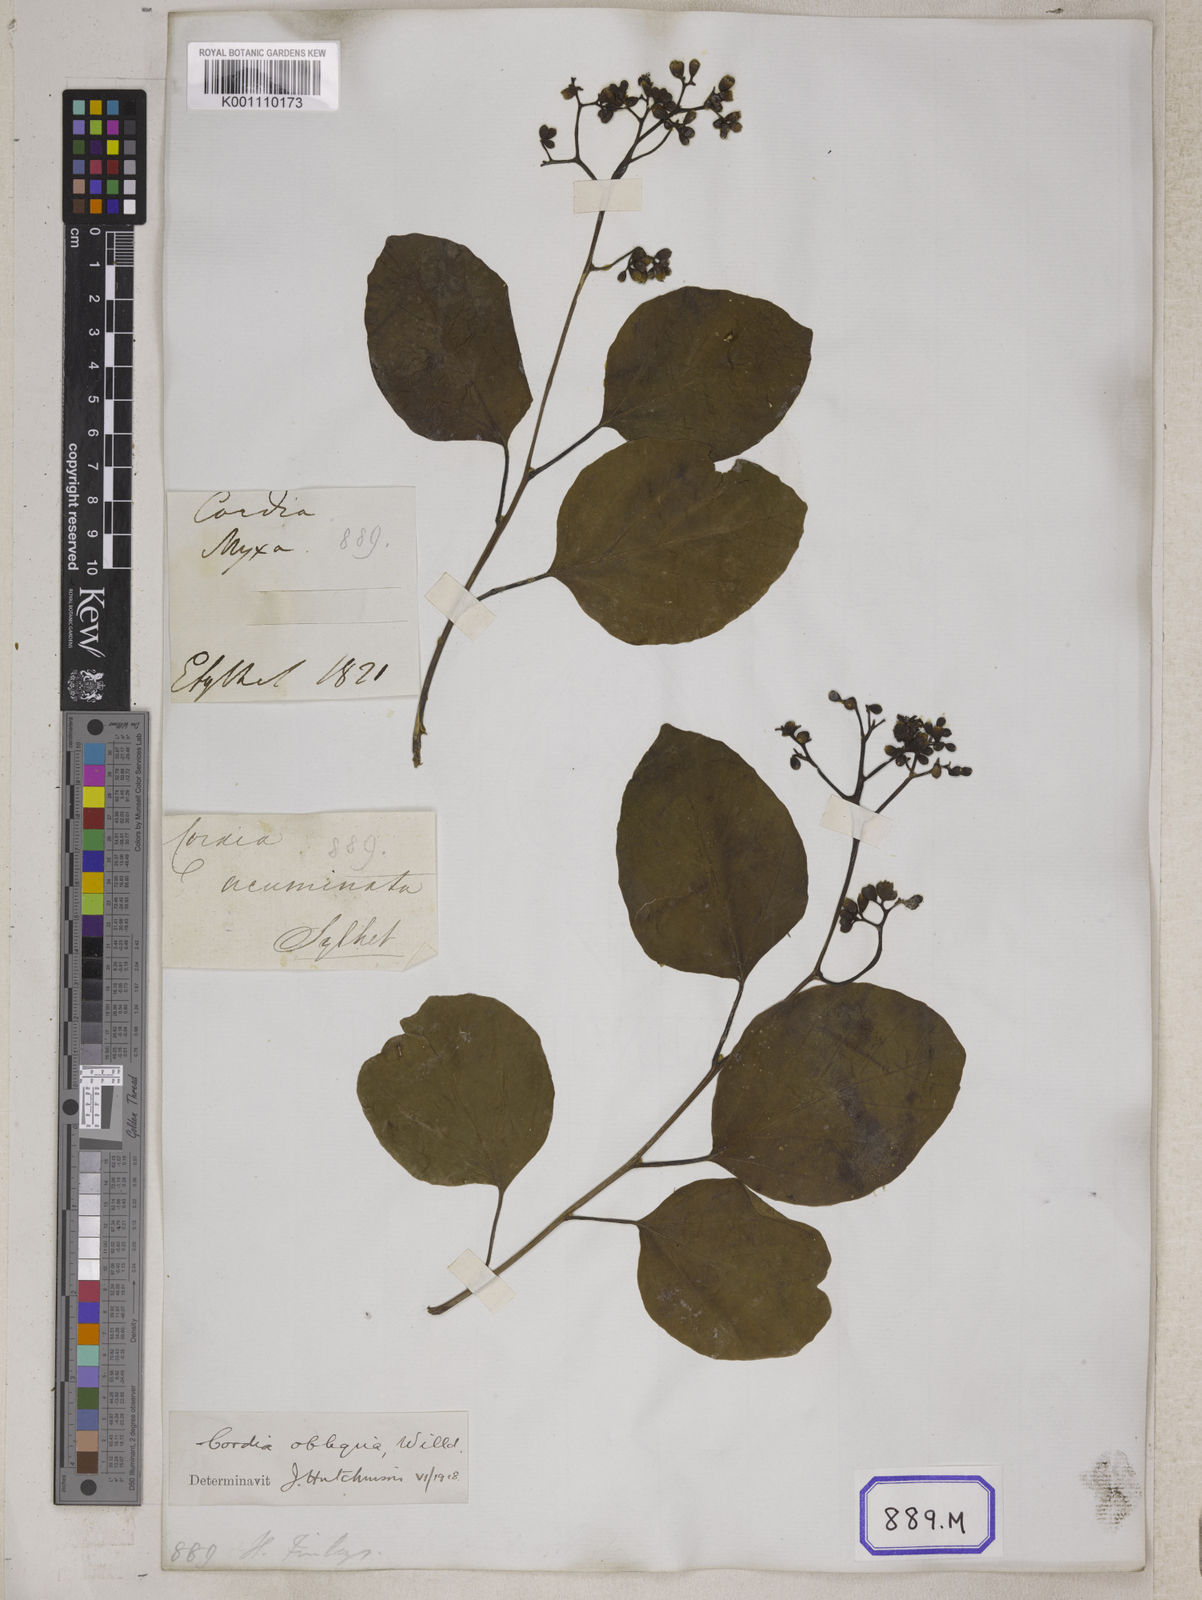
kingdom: Plantae
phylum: Tracheophyta
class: Magnoliopsida
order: Boraginales
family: Cordiaceae
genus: Cordia
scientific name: Cordia myxa
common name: Assyrian plum
